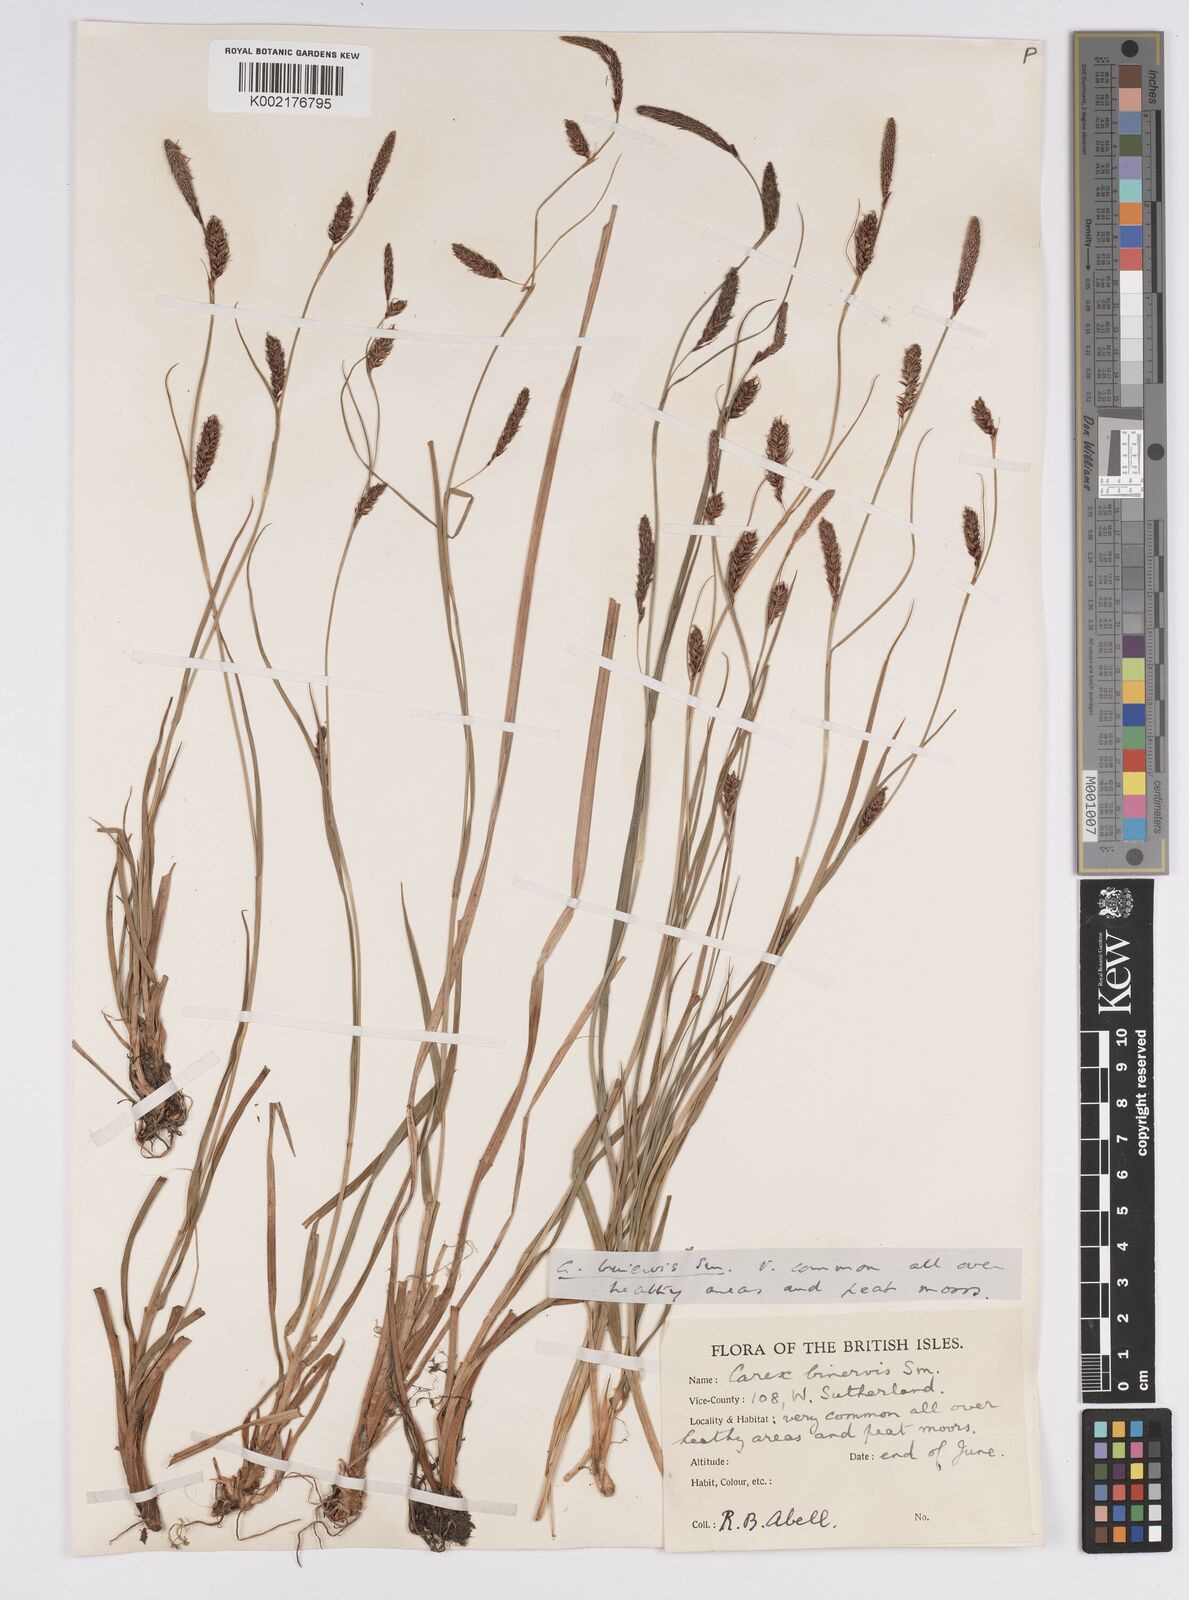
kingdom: Plantae
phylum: Tracheophyta
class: Liliopsida
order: Poales
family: Cyperaceae
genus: Carex
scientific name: Carex binervis
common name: Green-ribbed sedge
